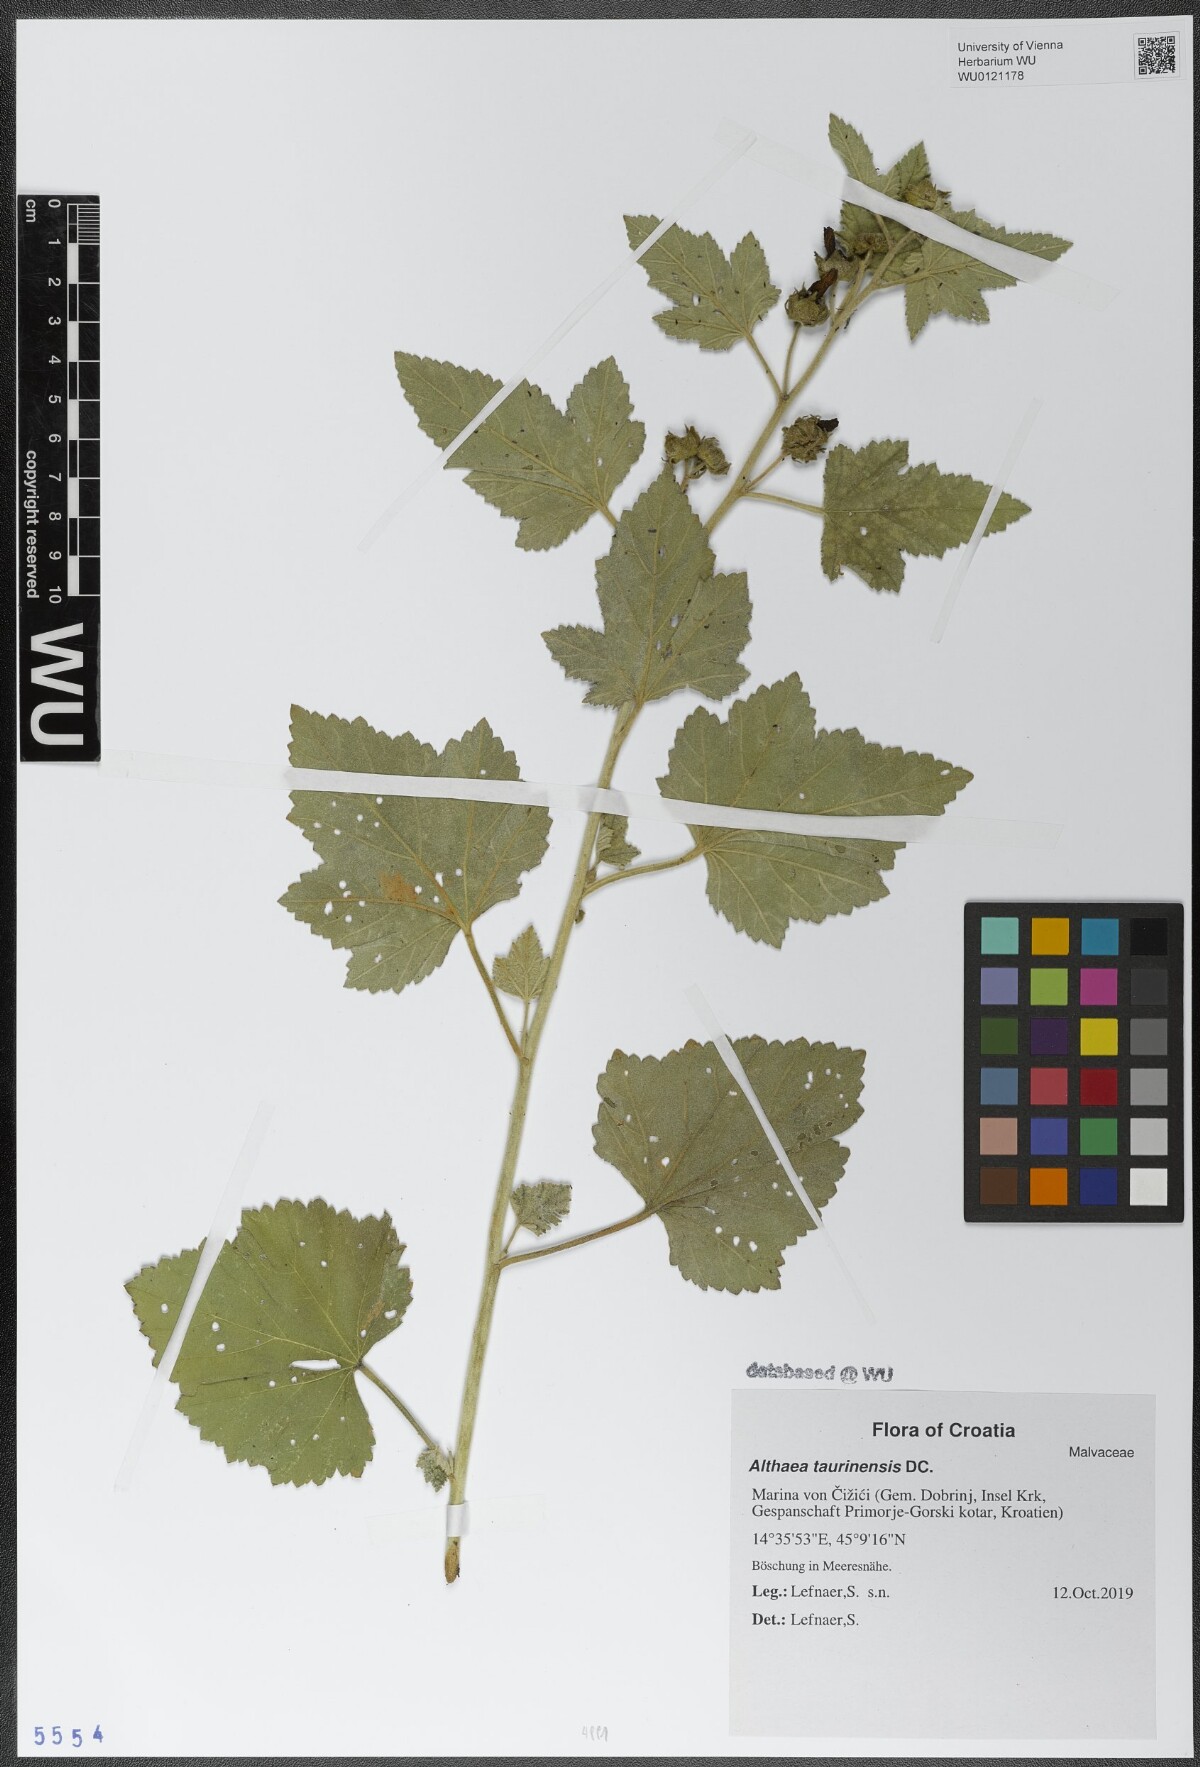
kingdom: Plantae
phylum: Tracheophyta
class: Magnoliopsida
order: Malvales
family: Malvaceae
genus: Althaea
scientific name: Althaea taurinensis
